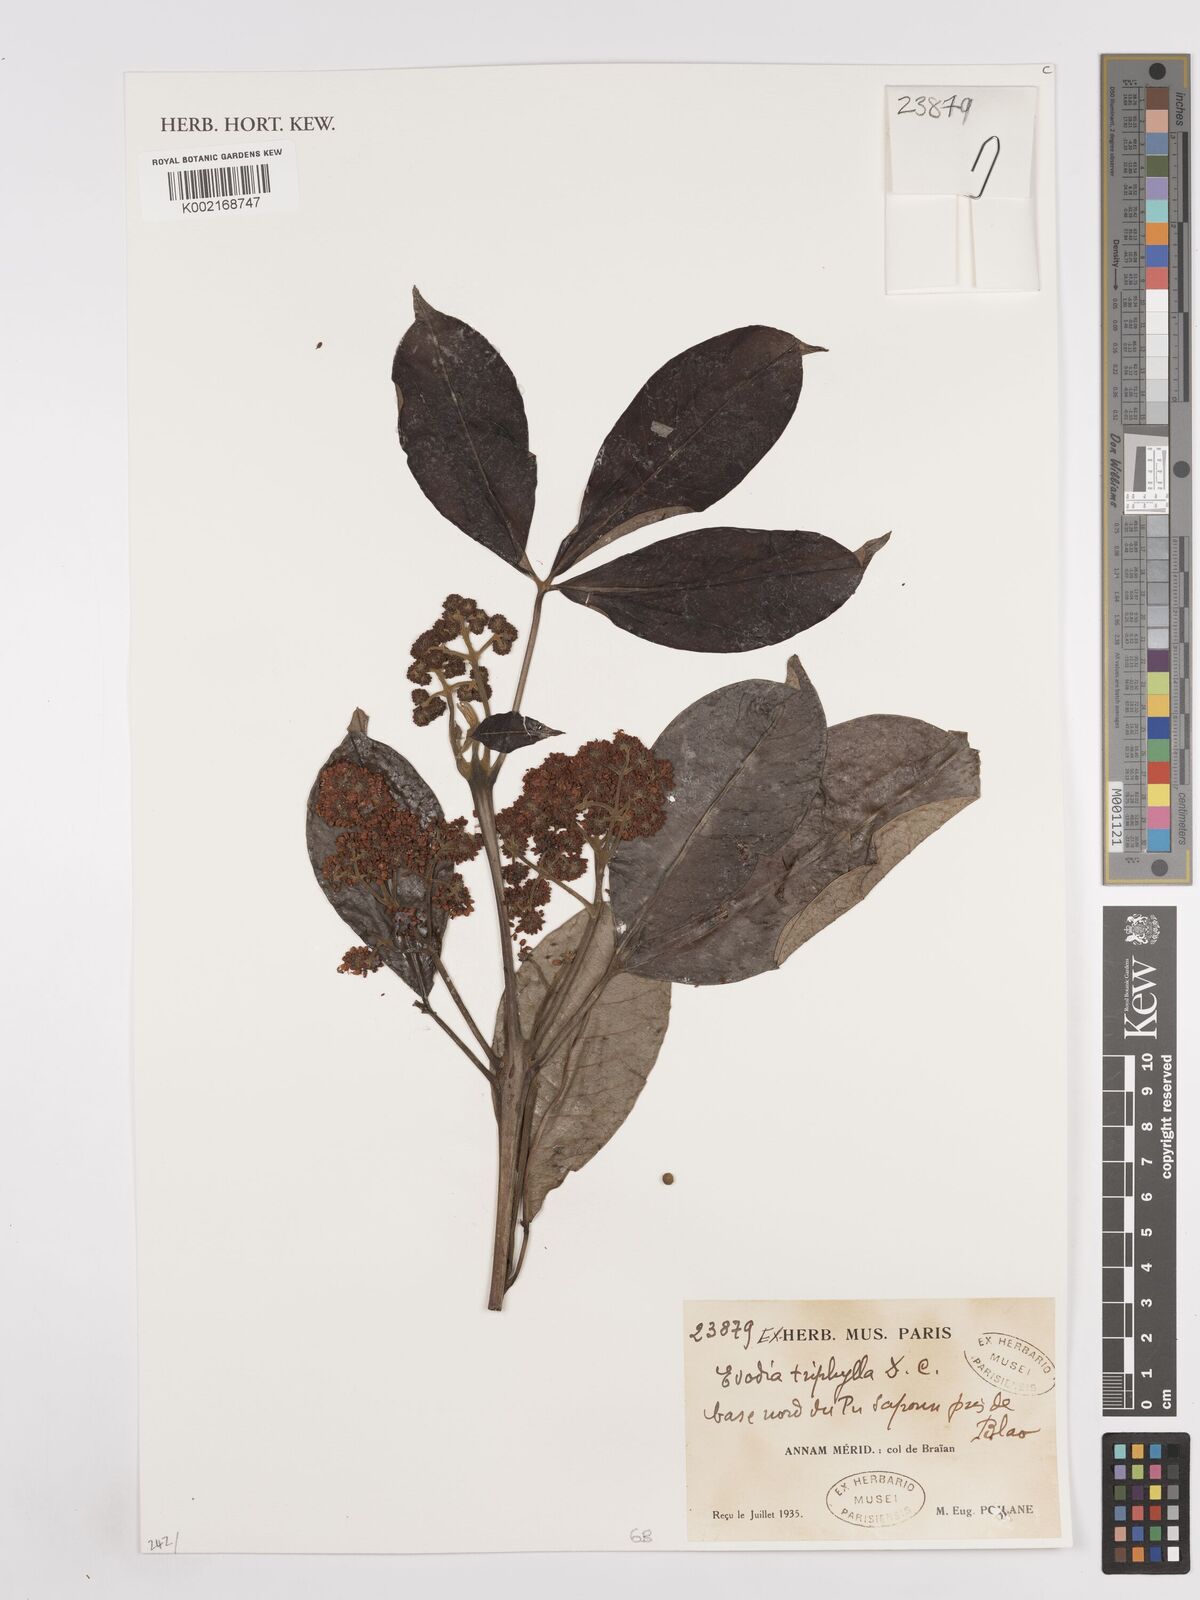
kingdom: Plantae
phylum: Tracheophyta
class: Magnoliopsida
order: Sapindales
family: Rutaceae
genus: Euodia
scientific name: Euodia
